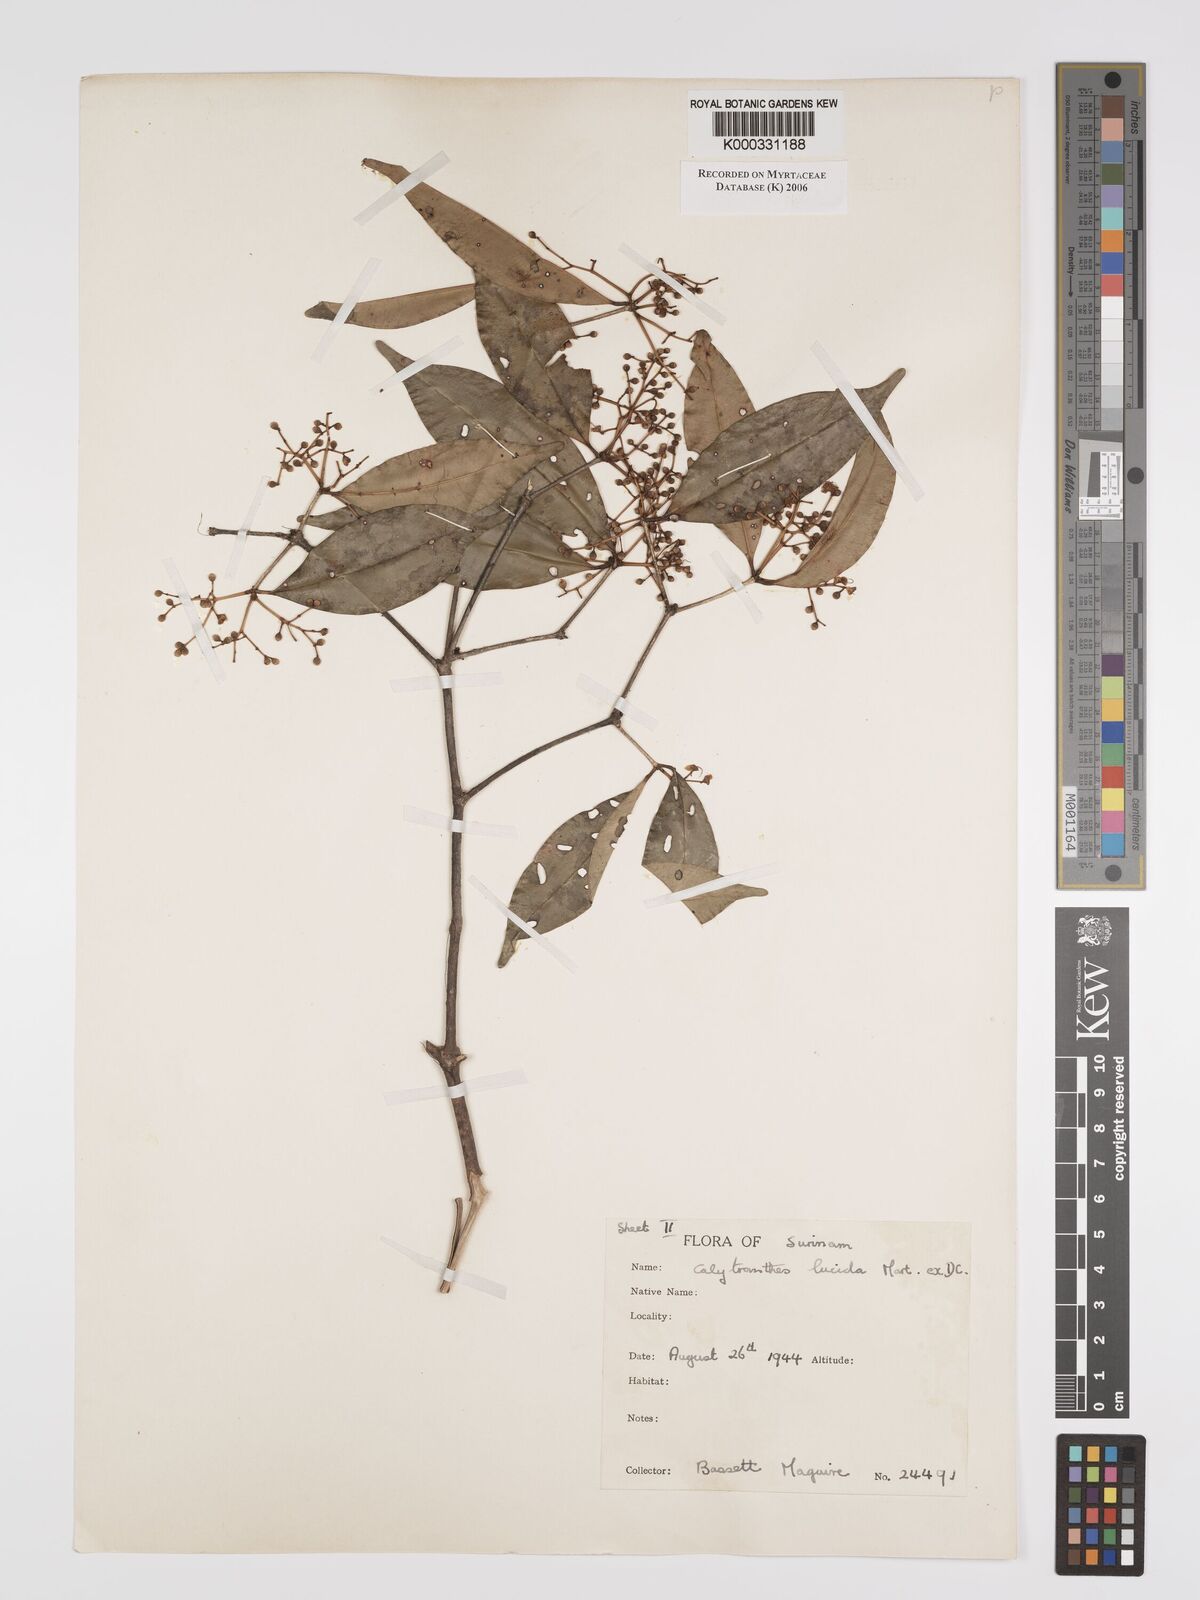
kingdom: Plantae
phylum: Tracheophyta
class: Magnoliopsida
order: Myrtales
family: Myrtaceae
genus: Myrcia
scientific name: Myrcia neolucida
